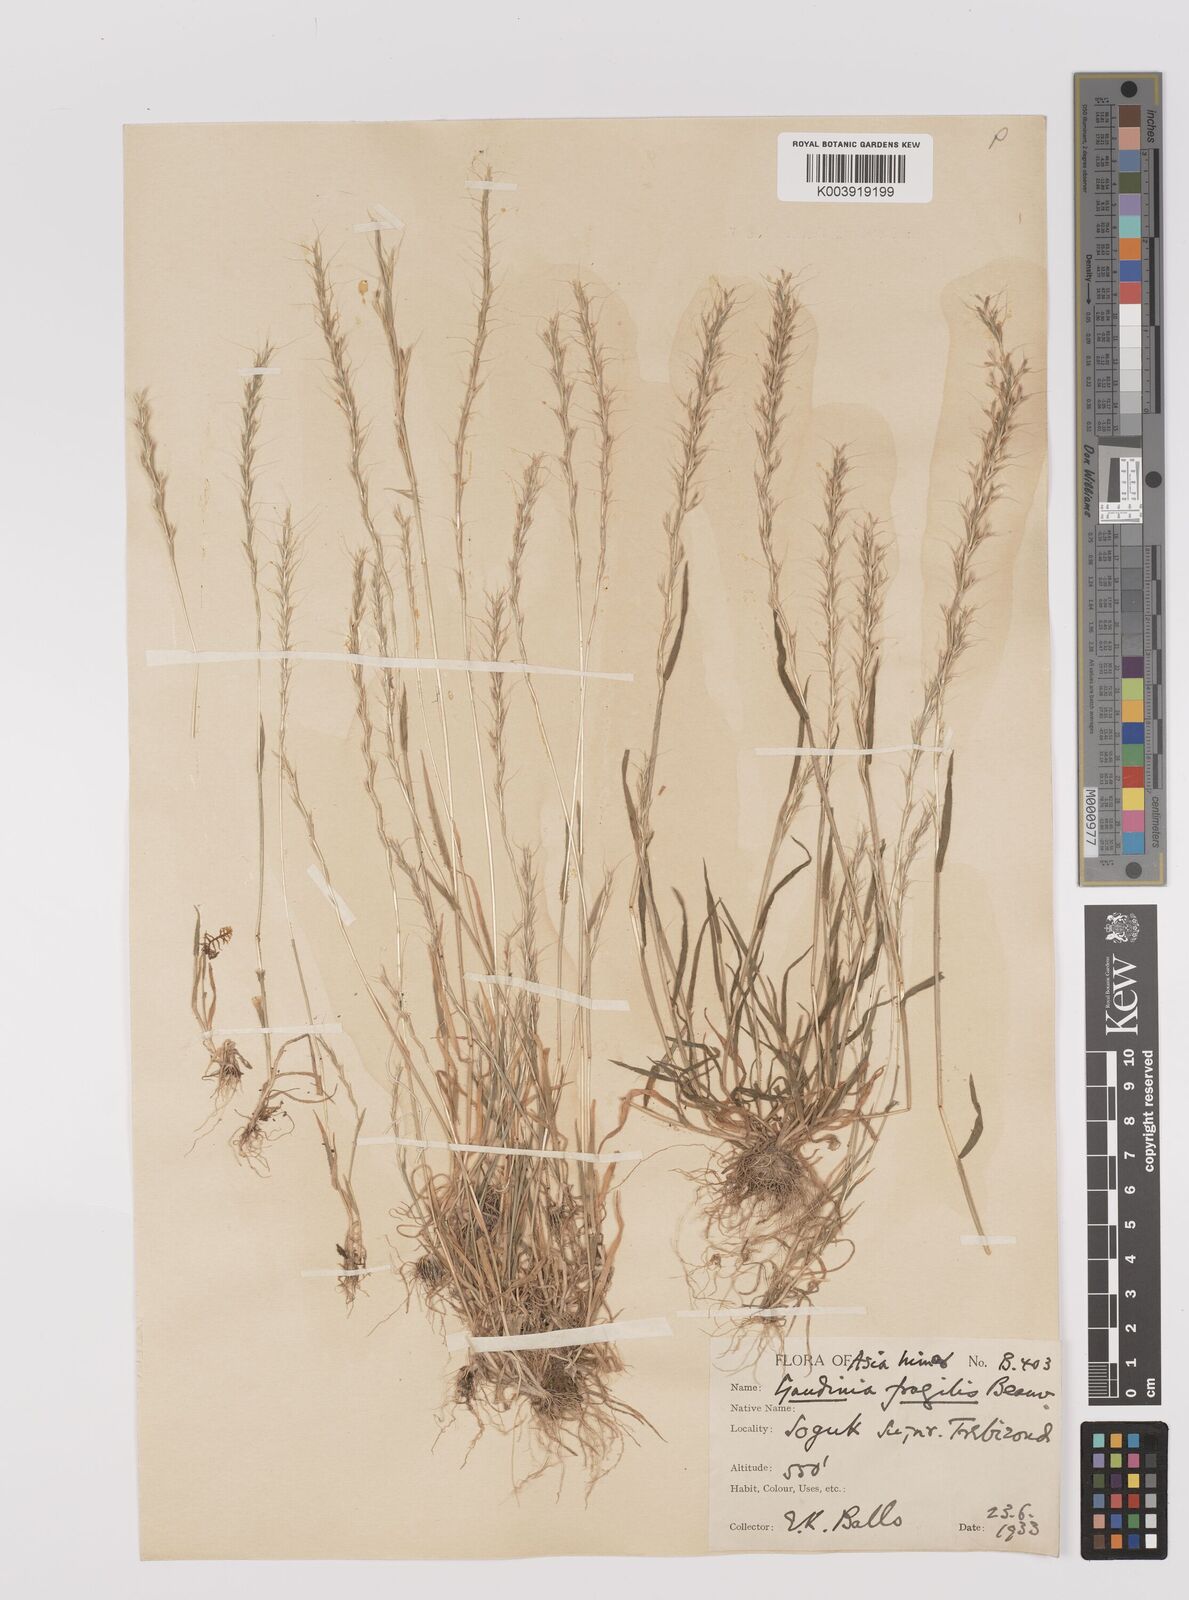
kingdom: Plantae
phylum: Tracheophyta
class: Liliopsida
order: Poales
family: Poaceae
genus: Gaudinia
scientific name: Gaudinia fragilis
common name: French oat-grass
